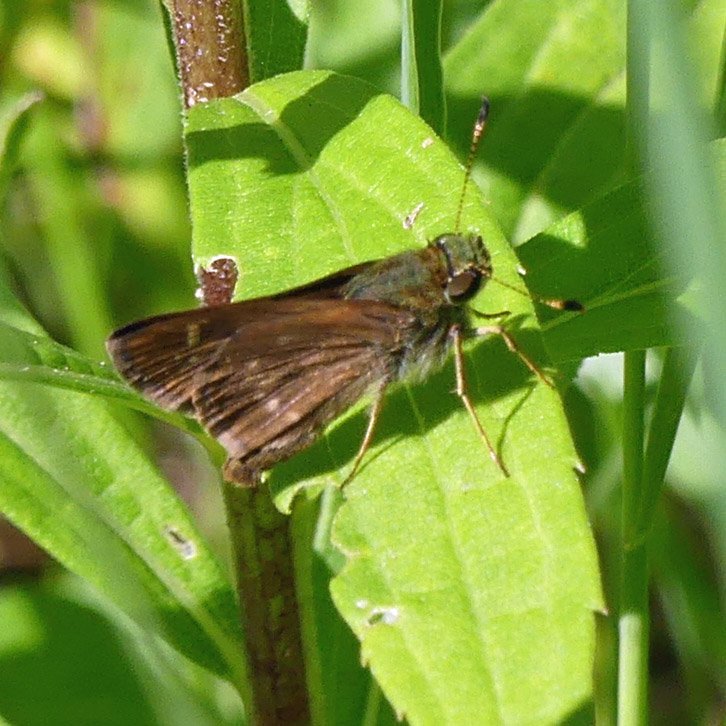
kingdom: Animalia
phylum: Arthropoda
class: Insecta
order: Lepidoptera
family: Hesperiidae
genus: Vernia
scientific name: Vernia verna
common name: Little Glassywing
